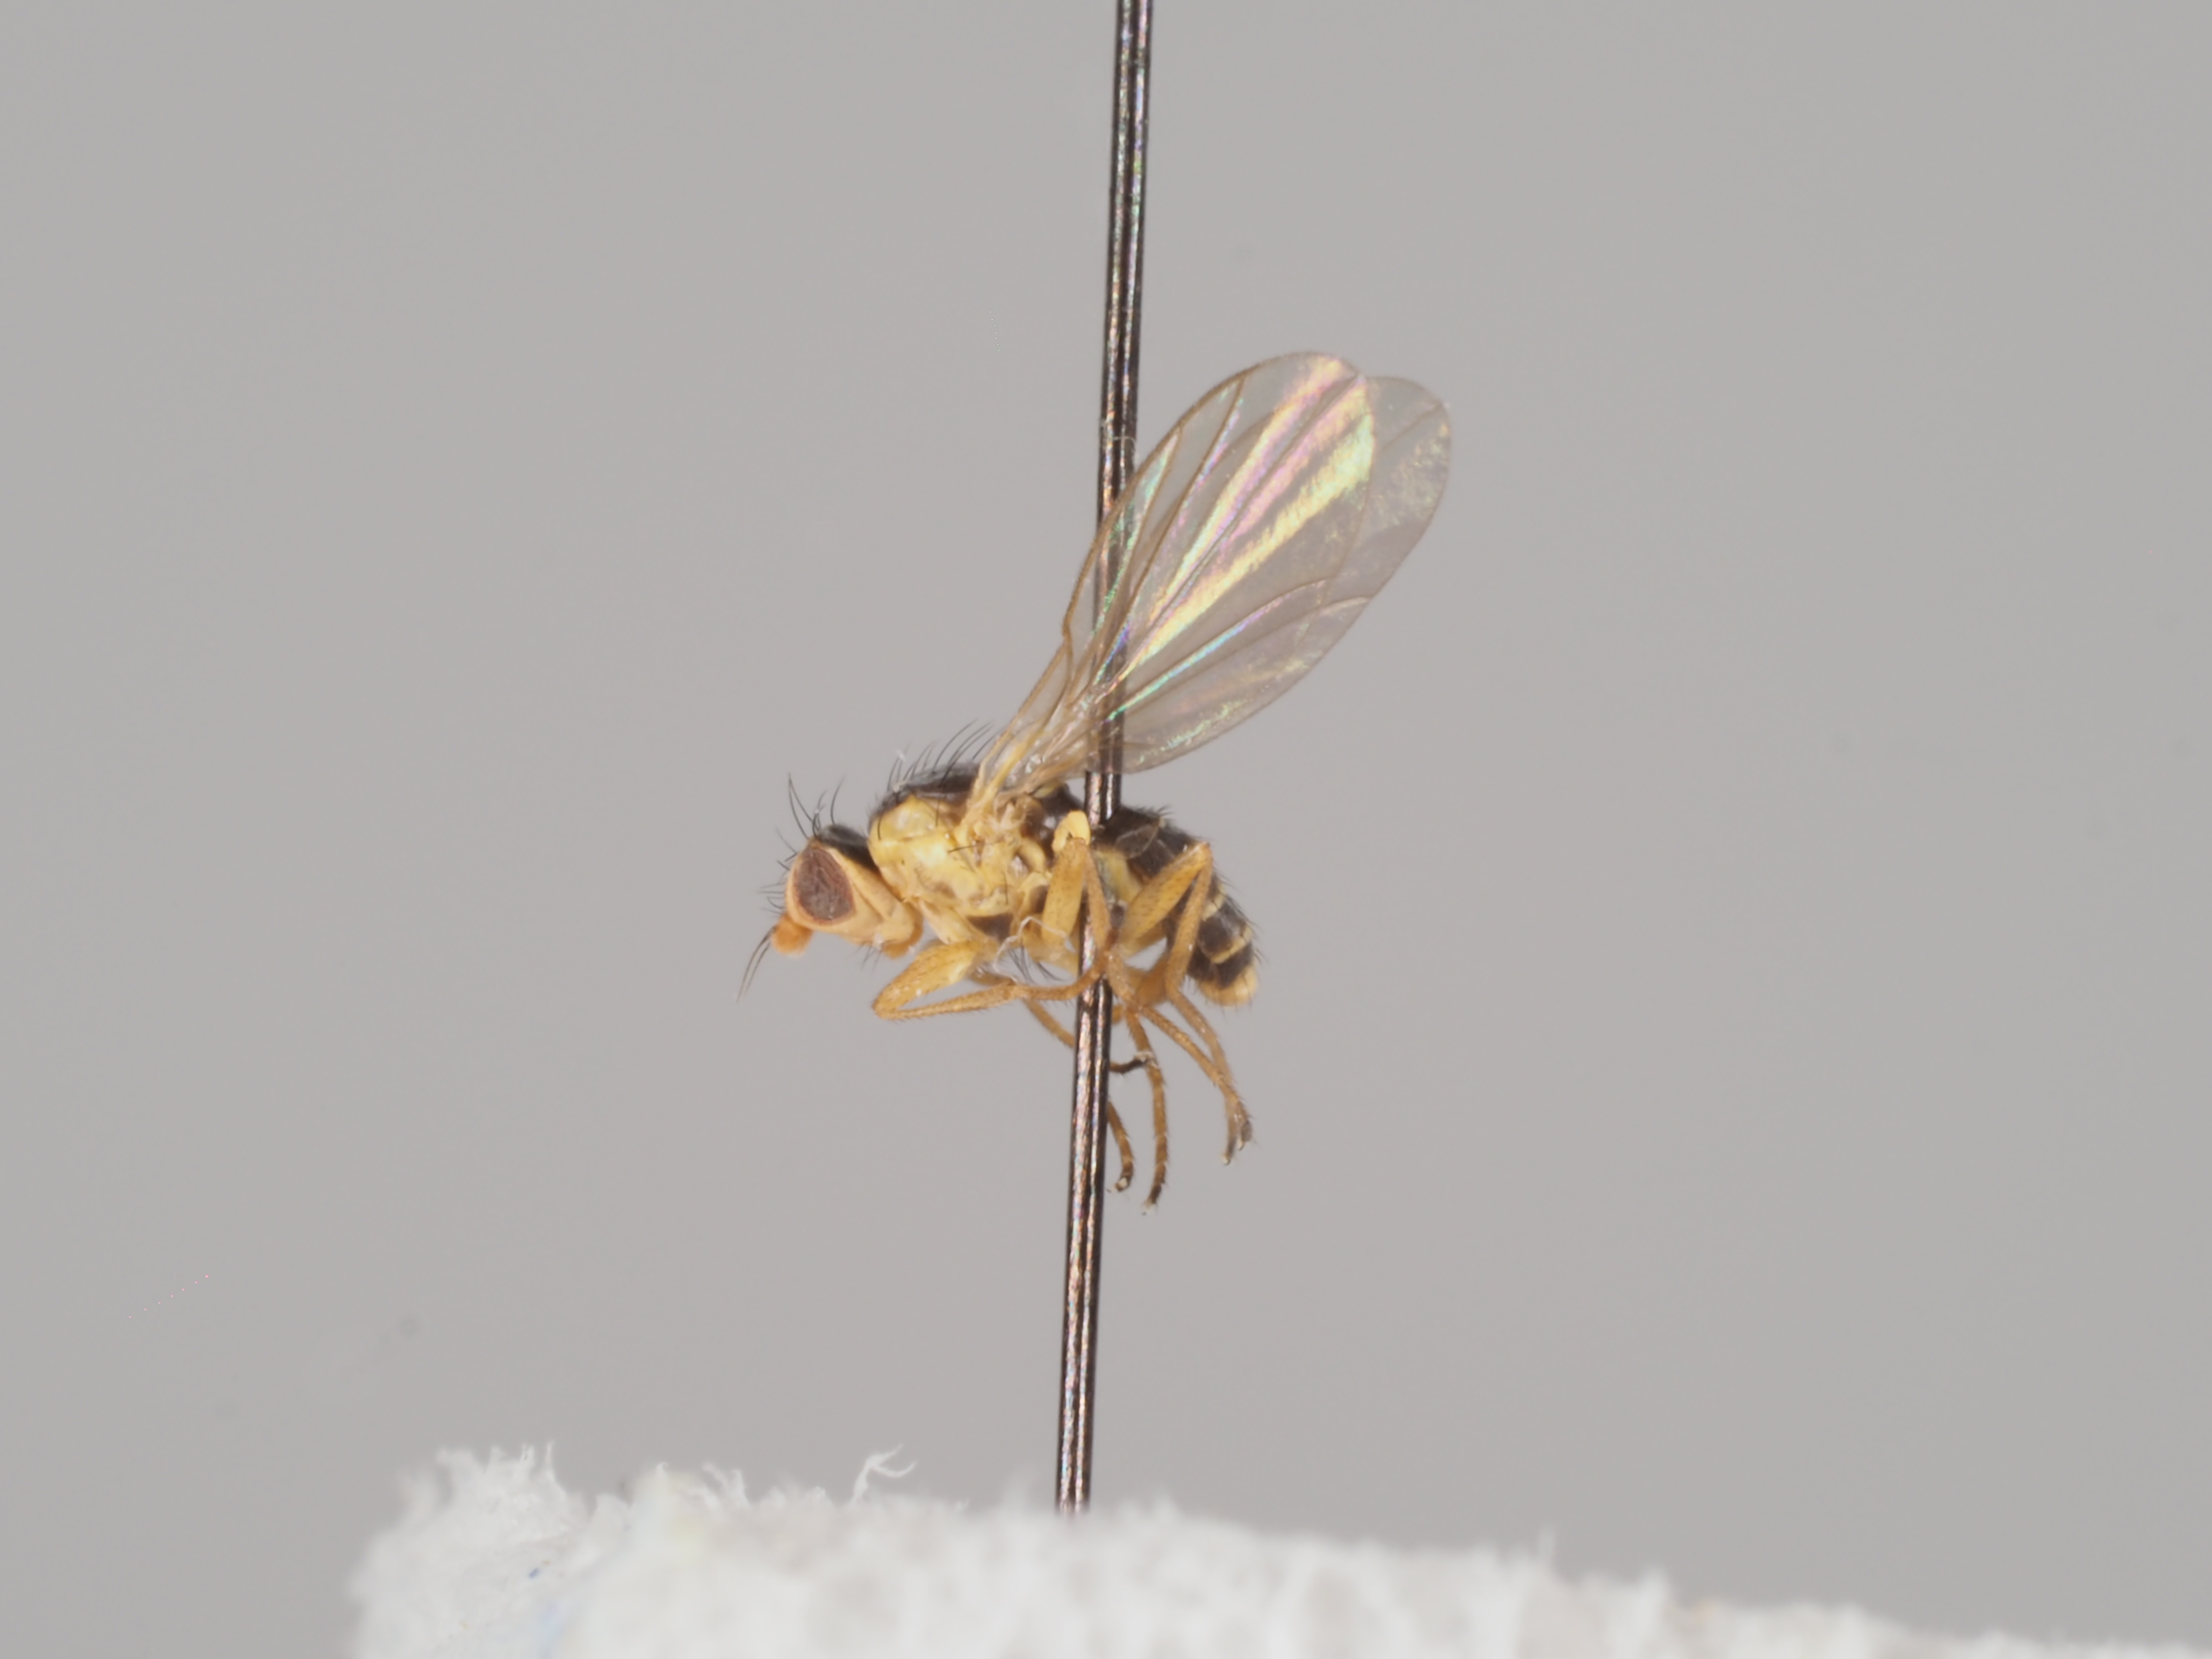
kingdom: Animalia
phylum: Arthropoda
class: Insecta
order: Diptera
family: Agromyzidae
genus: Phytomyza
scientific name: Phytomyza flavicornis
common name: Leaf-miner fly
